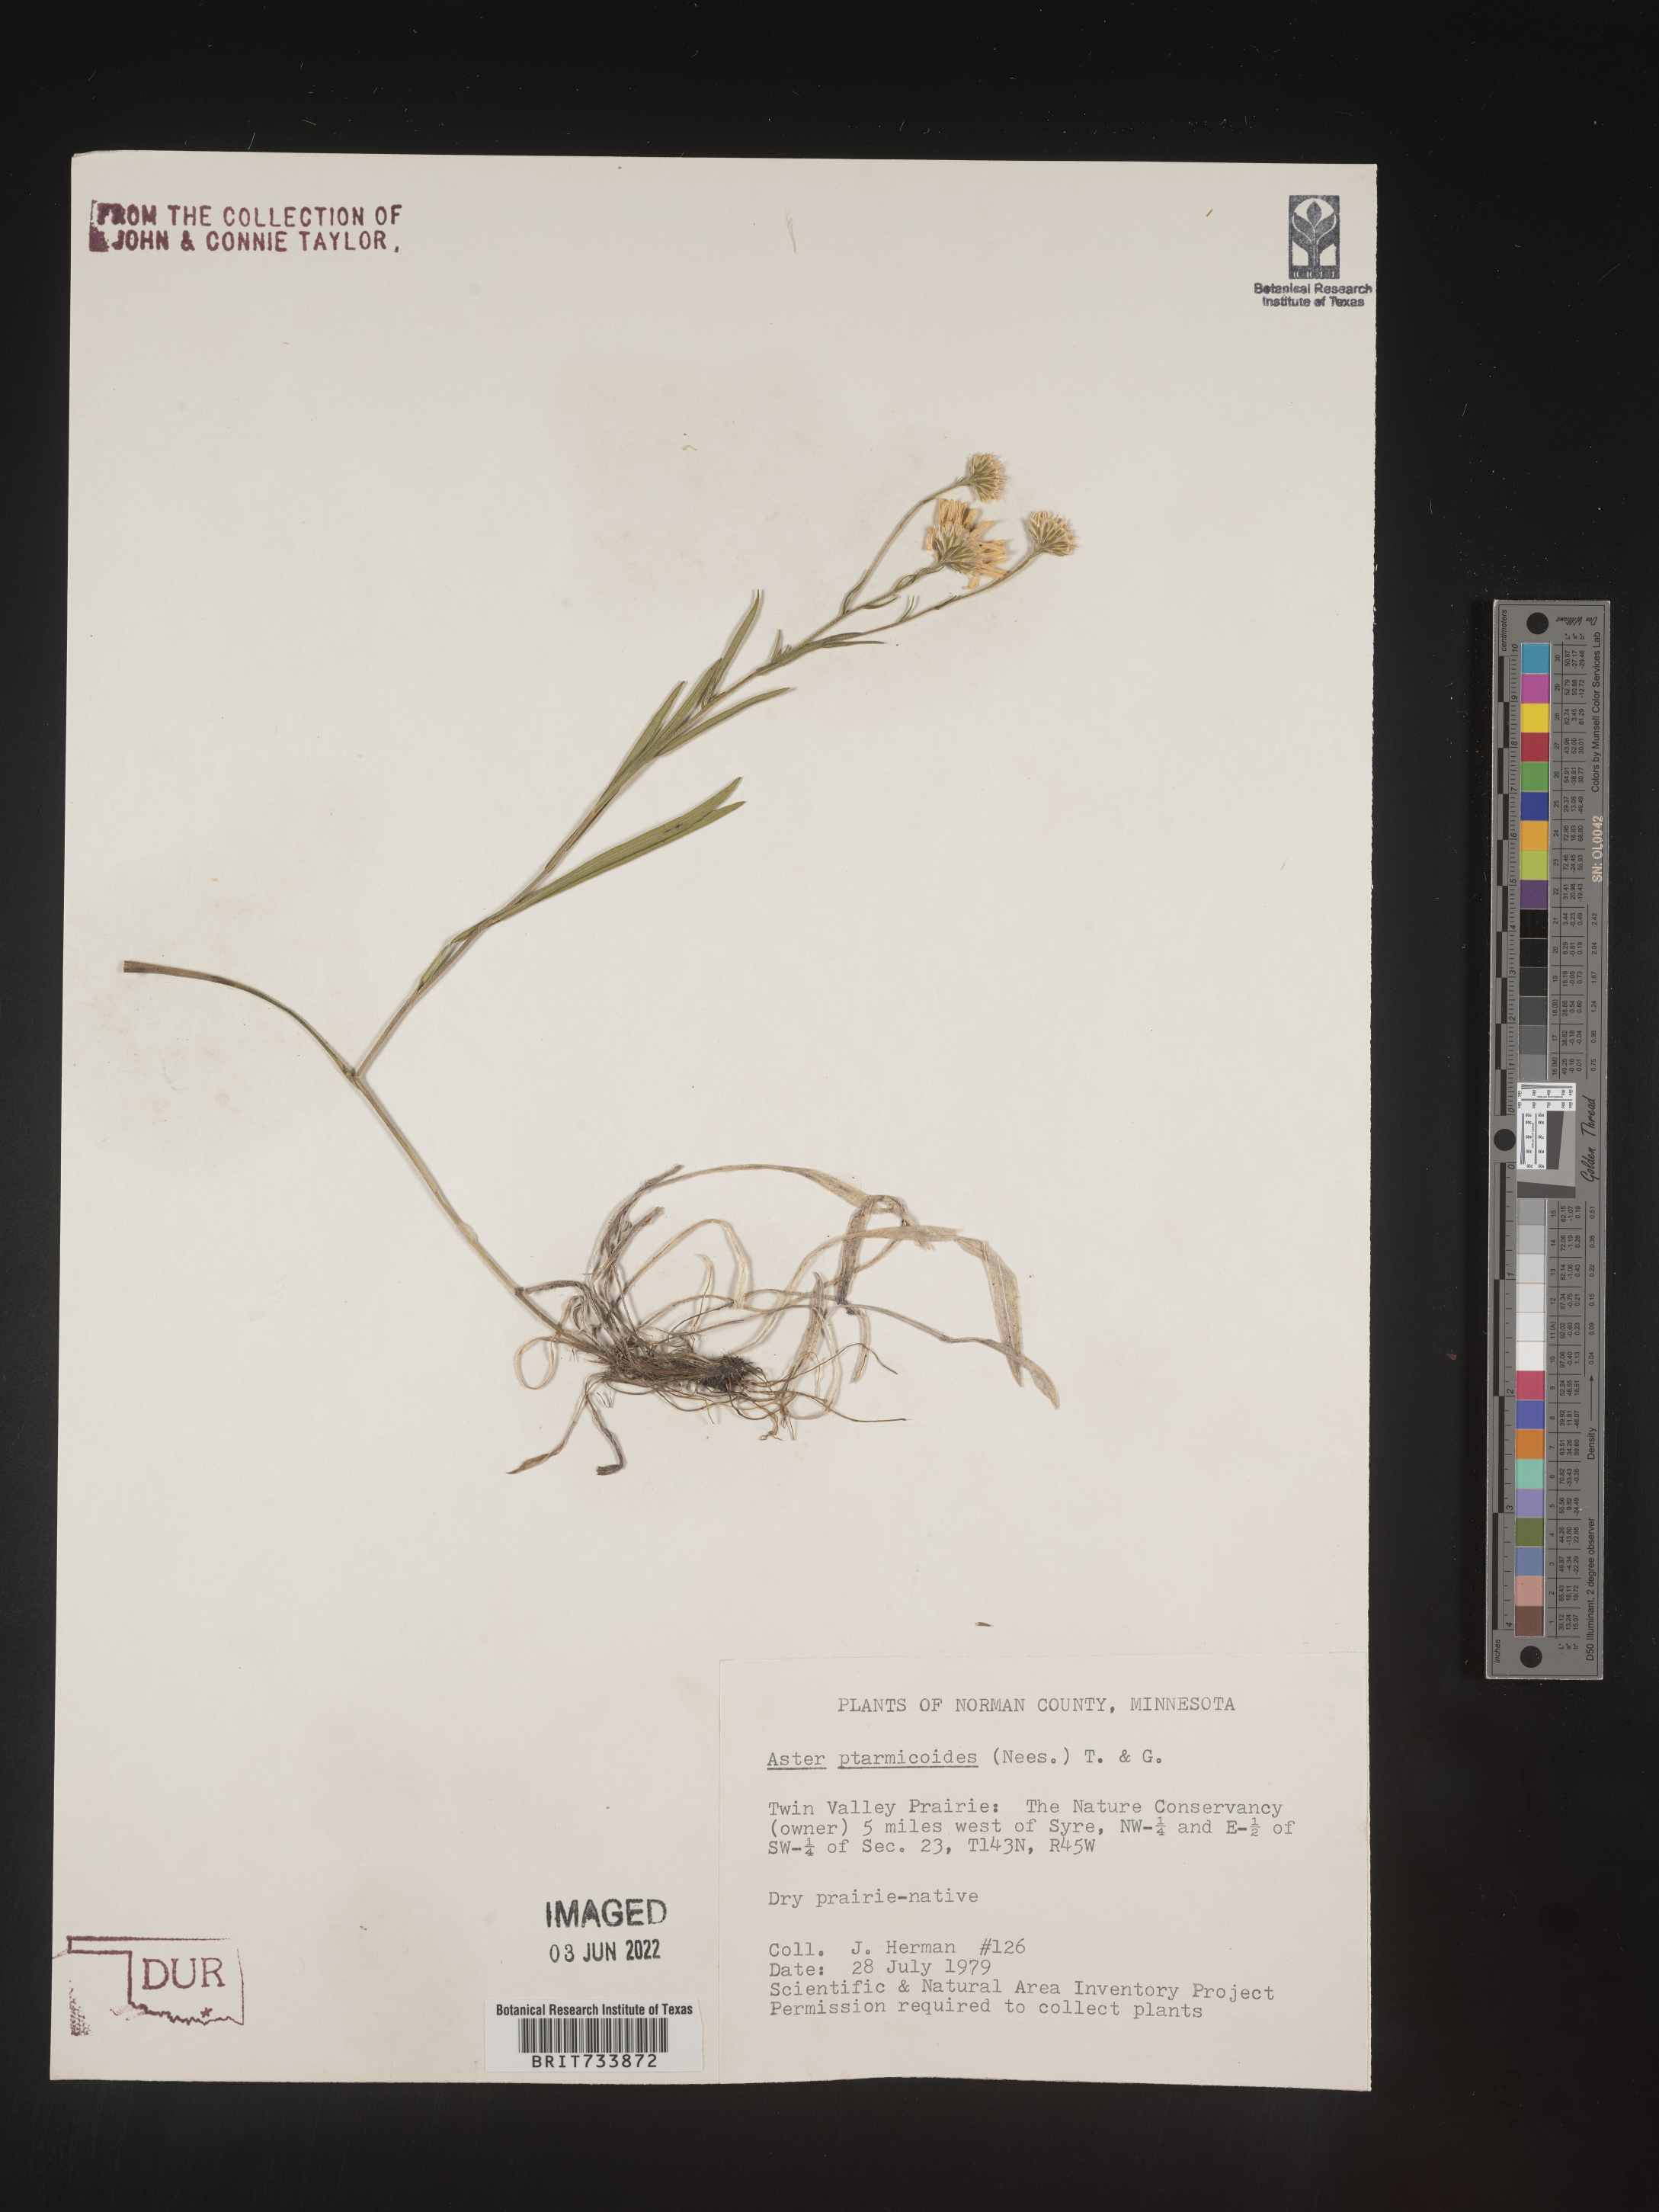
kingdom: Plantae
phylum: Tracheophyta
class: Magnoliopsida
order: Asterales
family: Asteraceae
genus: Solidago
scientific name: Solidago ptarmicoides
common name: White flat-top goldenrod
